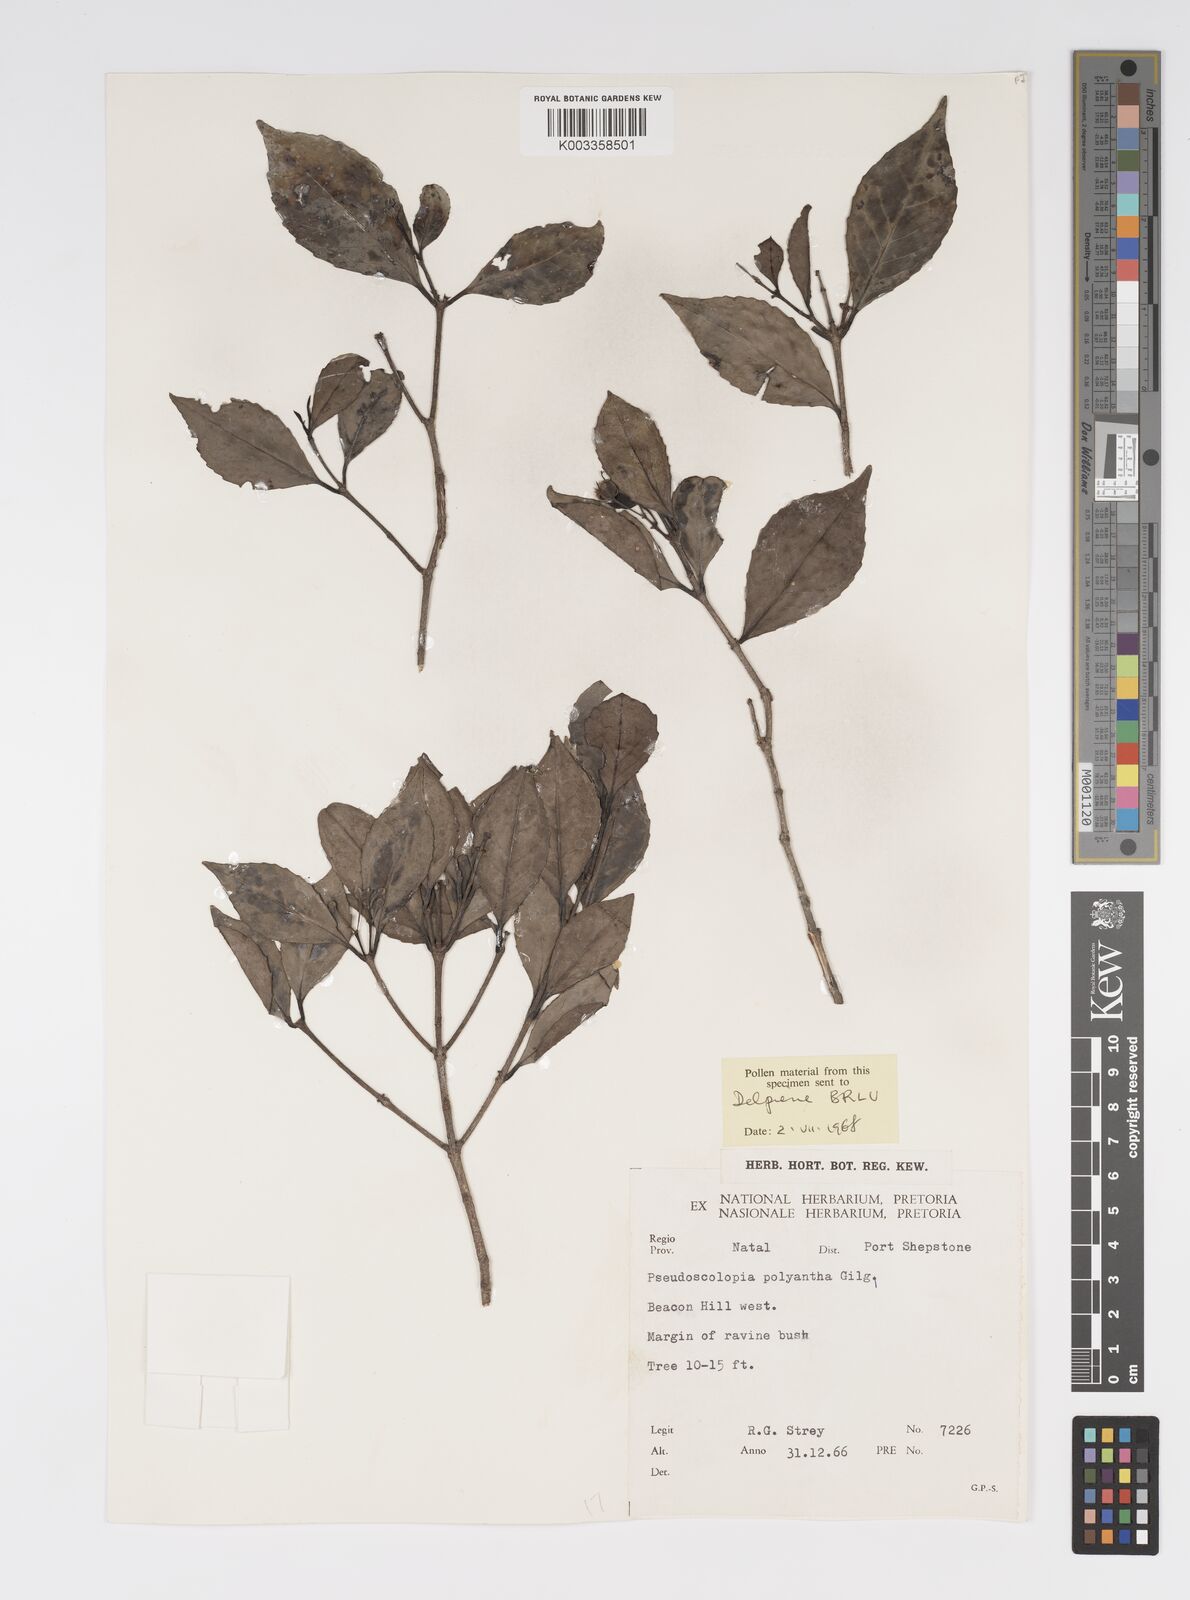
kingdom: Plantae
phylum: Tracheophyta
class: Magnoliopsida
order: Malpighiales
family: Salicaceae
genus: Pseudoscolopia
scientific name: Pseudoscolopia polyantha
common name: Sandstone red-stem
